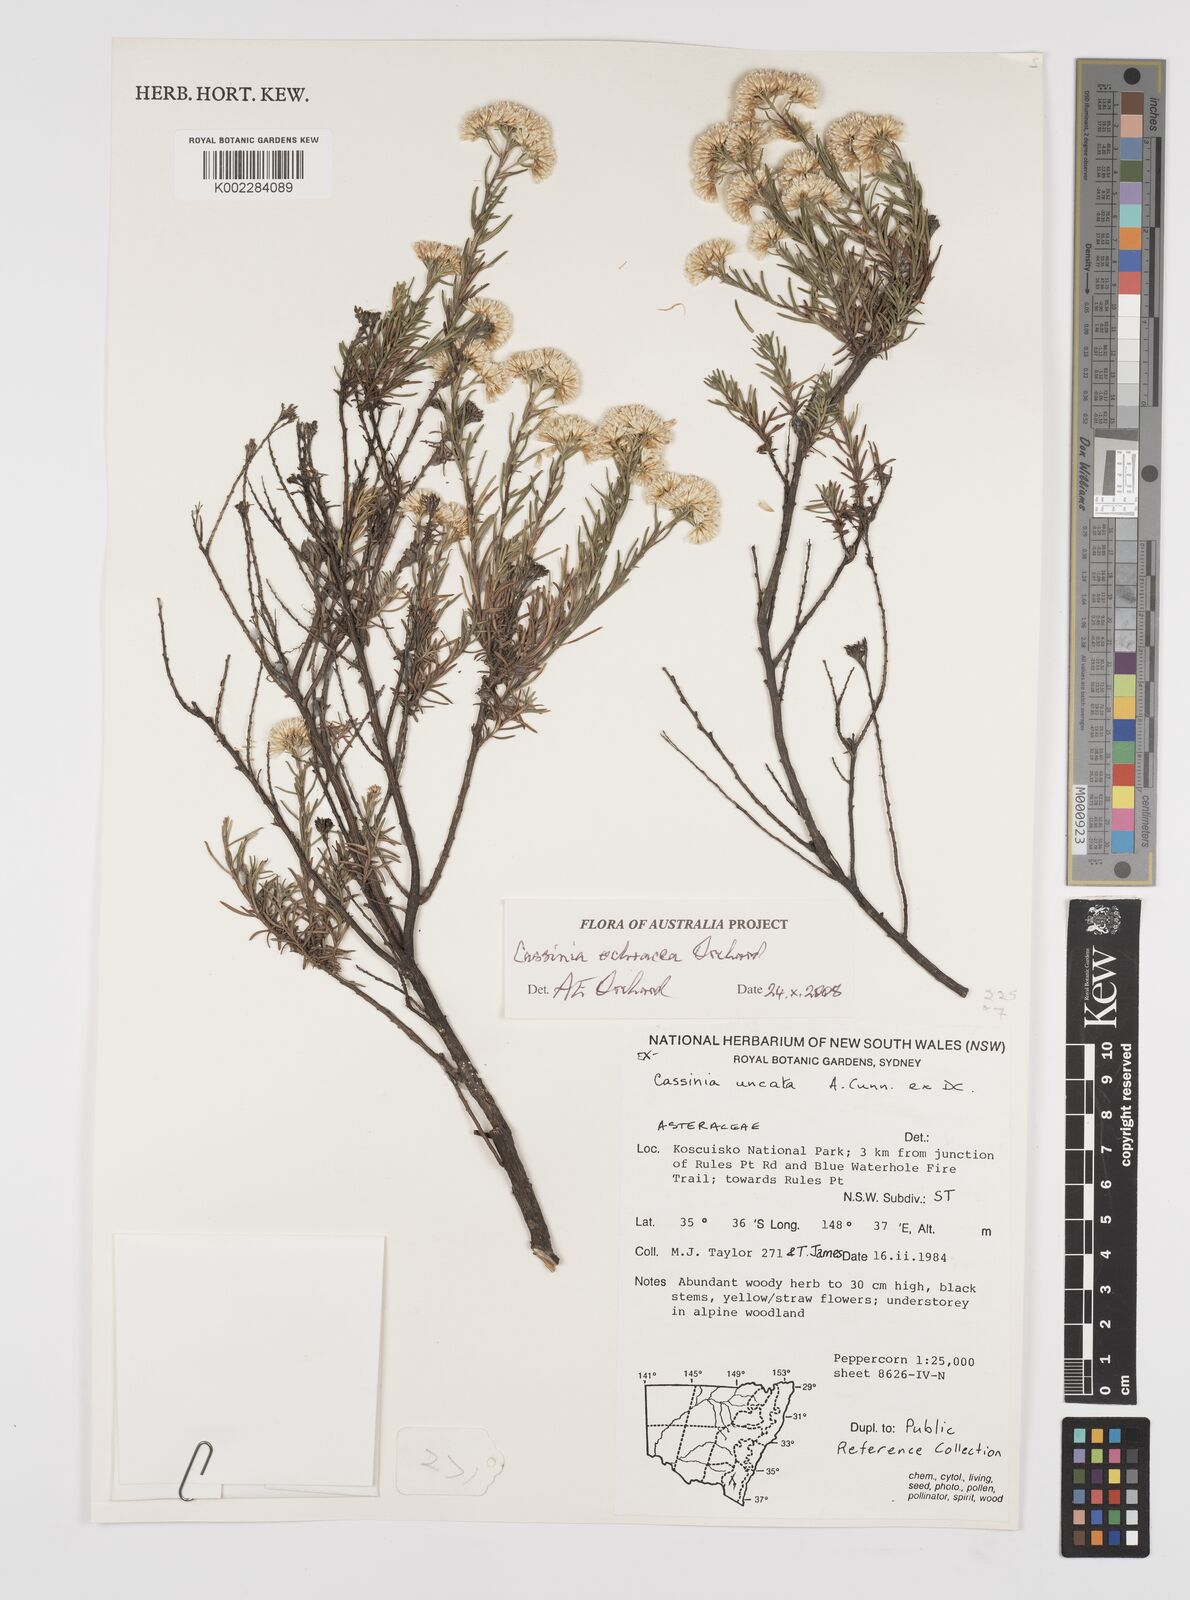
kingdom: Plantae
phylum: Tracheophyta
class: Magnoliopsida
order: Asterales
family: Asteraceae
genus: Cassinia
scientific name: Cassinia ochracea
